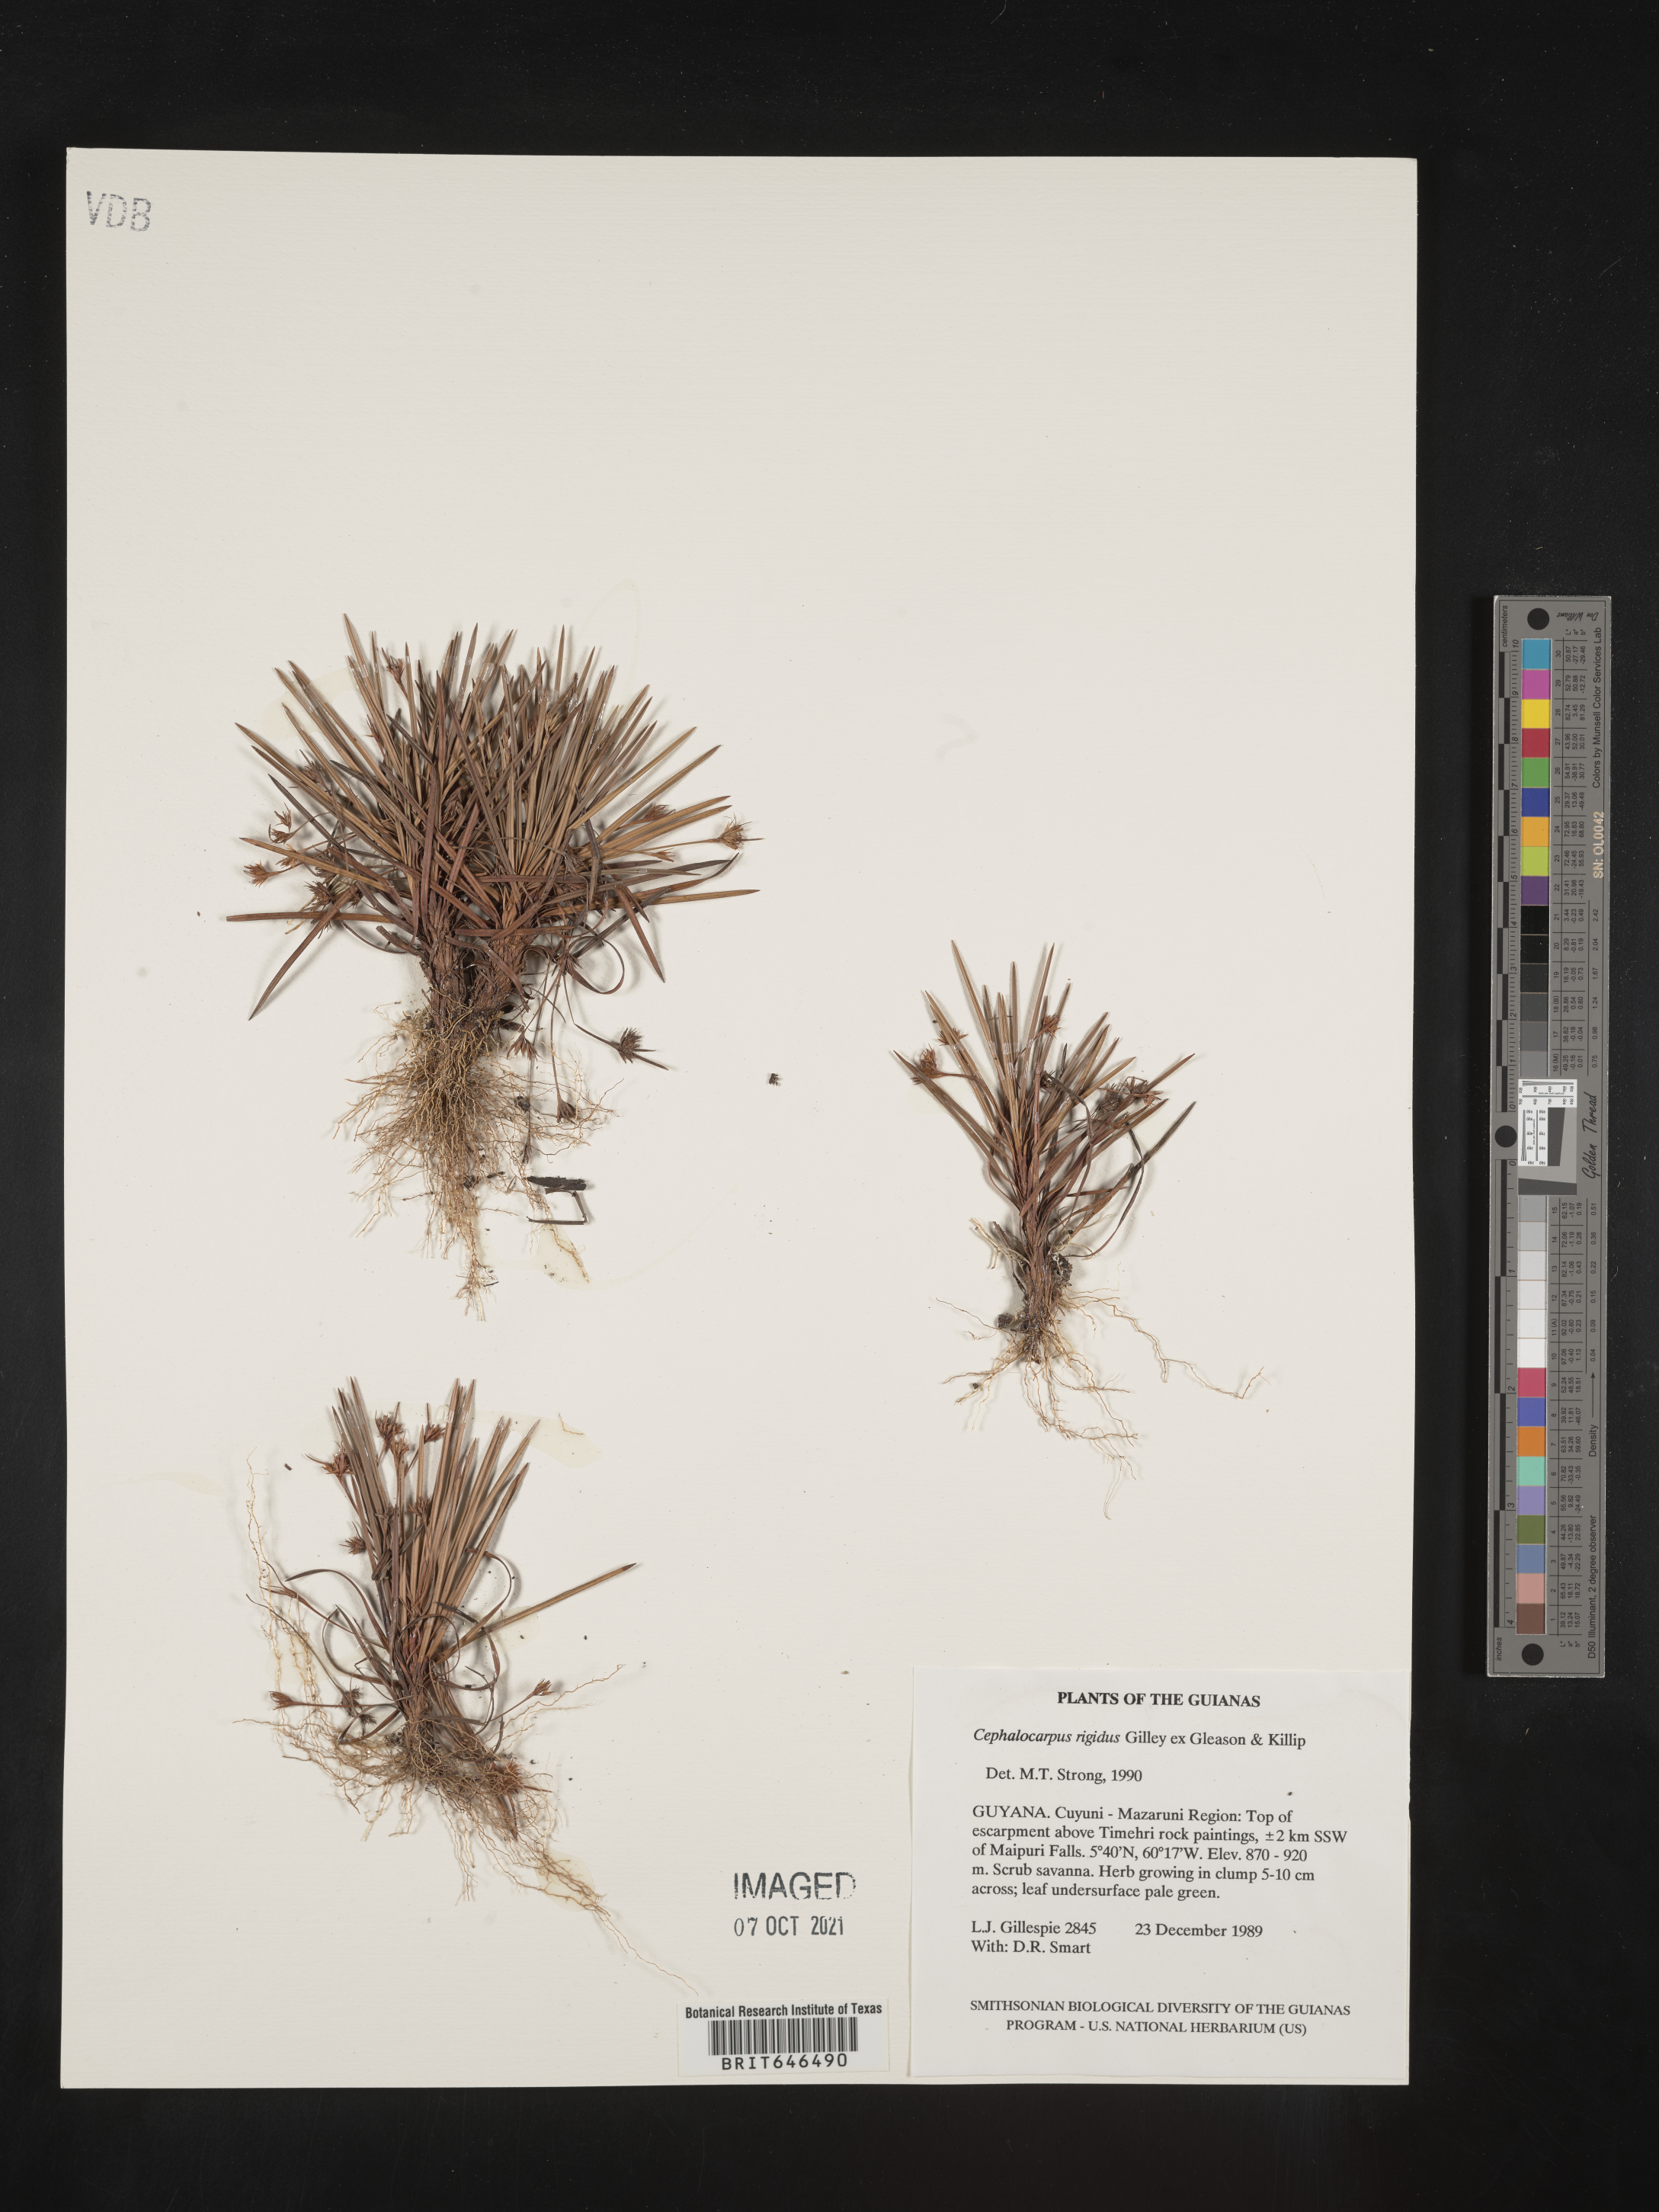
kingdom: Plantae
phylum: Tracheophyta
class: Liliopsida
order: Poales
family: Cyperaceae
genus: Cephalocarpus
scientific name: Cephalocarpus rigidus
